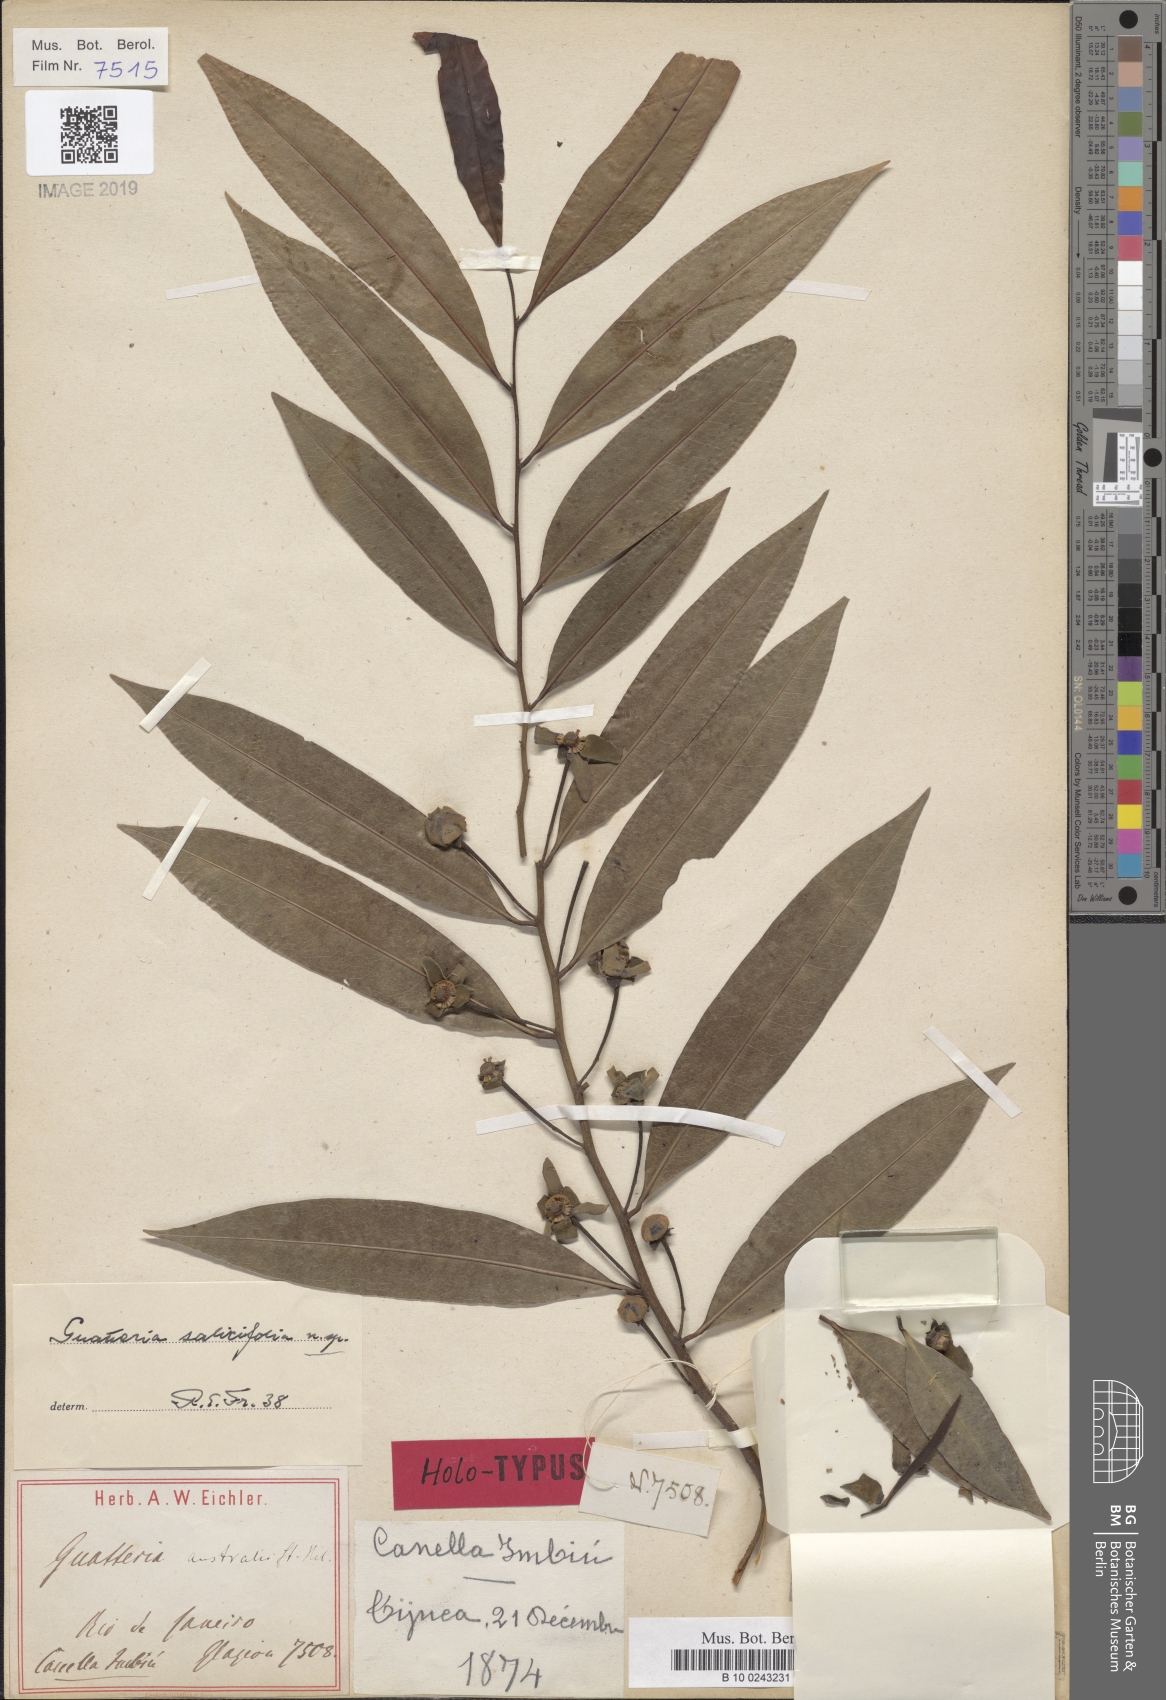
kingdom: Plantae
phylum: Tracheophyta
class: Magnoliopsida
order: Magnoliales
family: Annonaceae
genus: Guatteria
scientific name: Guatteria australis
